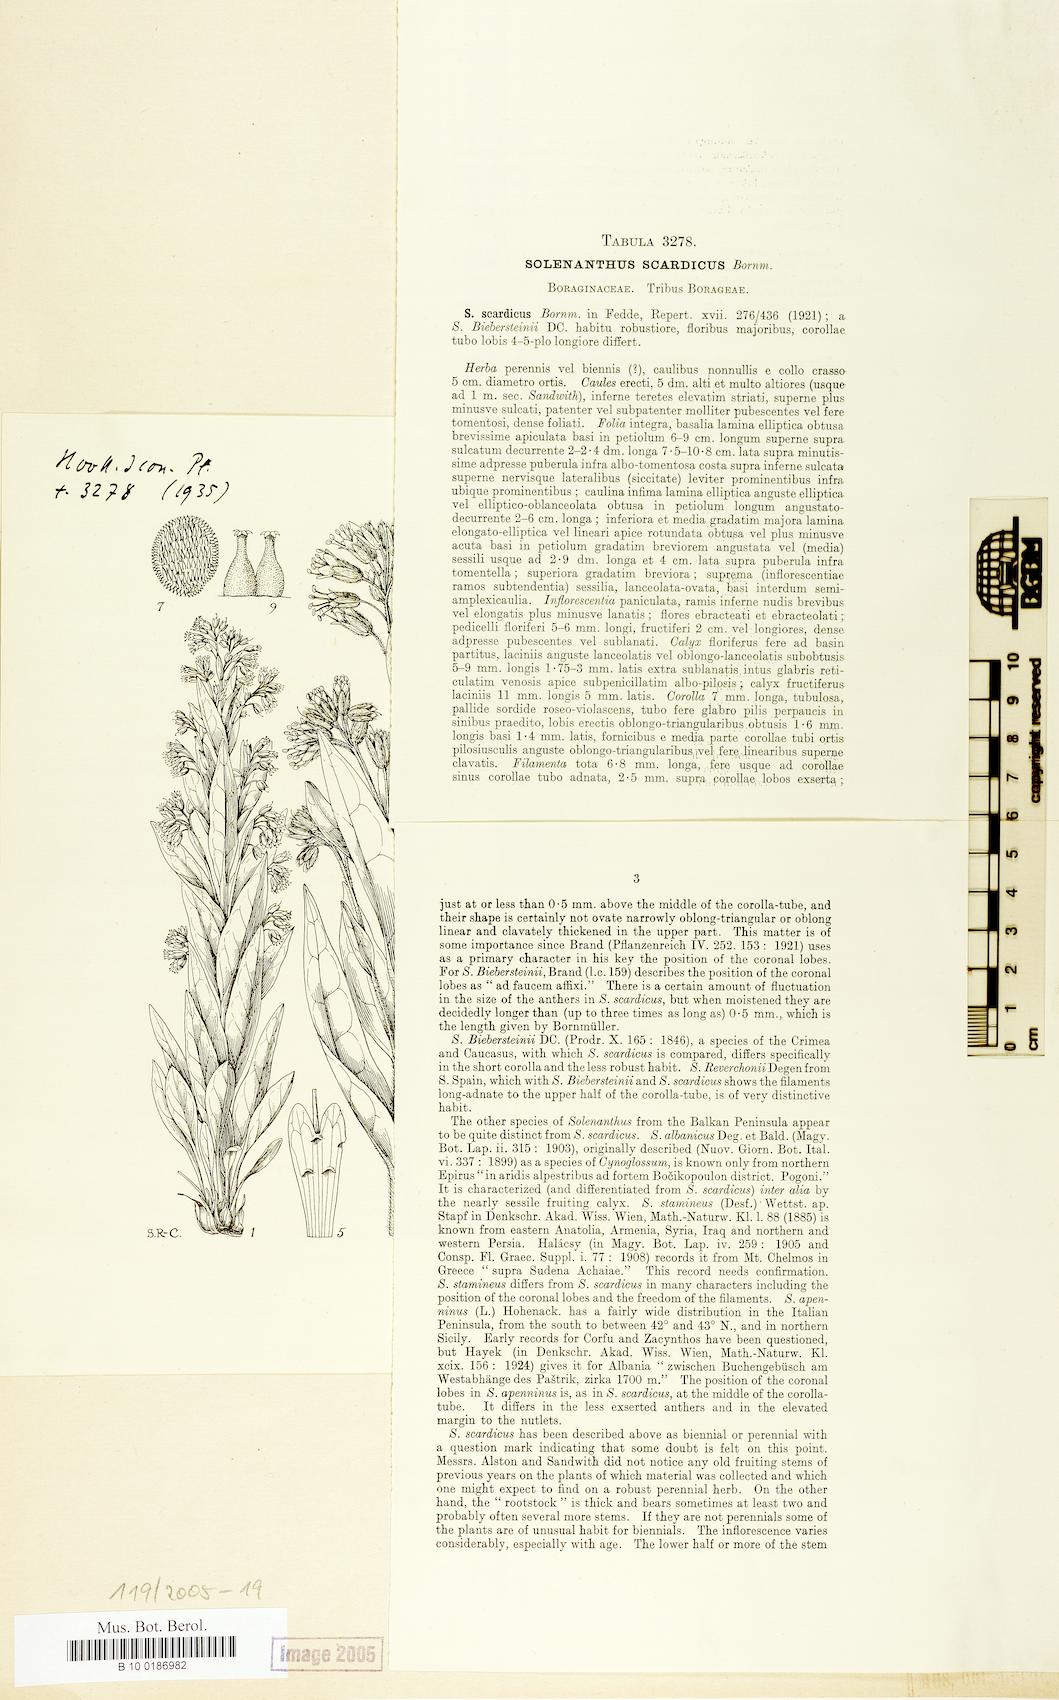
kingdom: Plantae
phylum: Tracheophyta
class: Magnoliopsida
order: Boraginales
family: Boraginaceae
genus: Solenanthus
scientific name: Solenanthus scardicus
